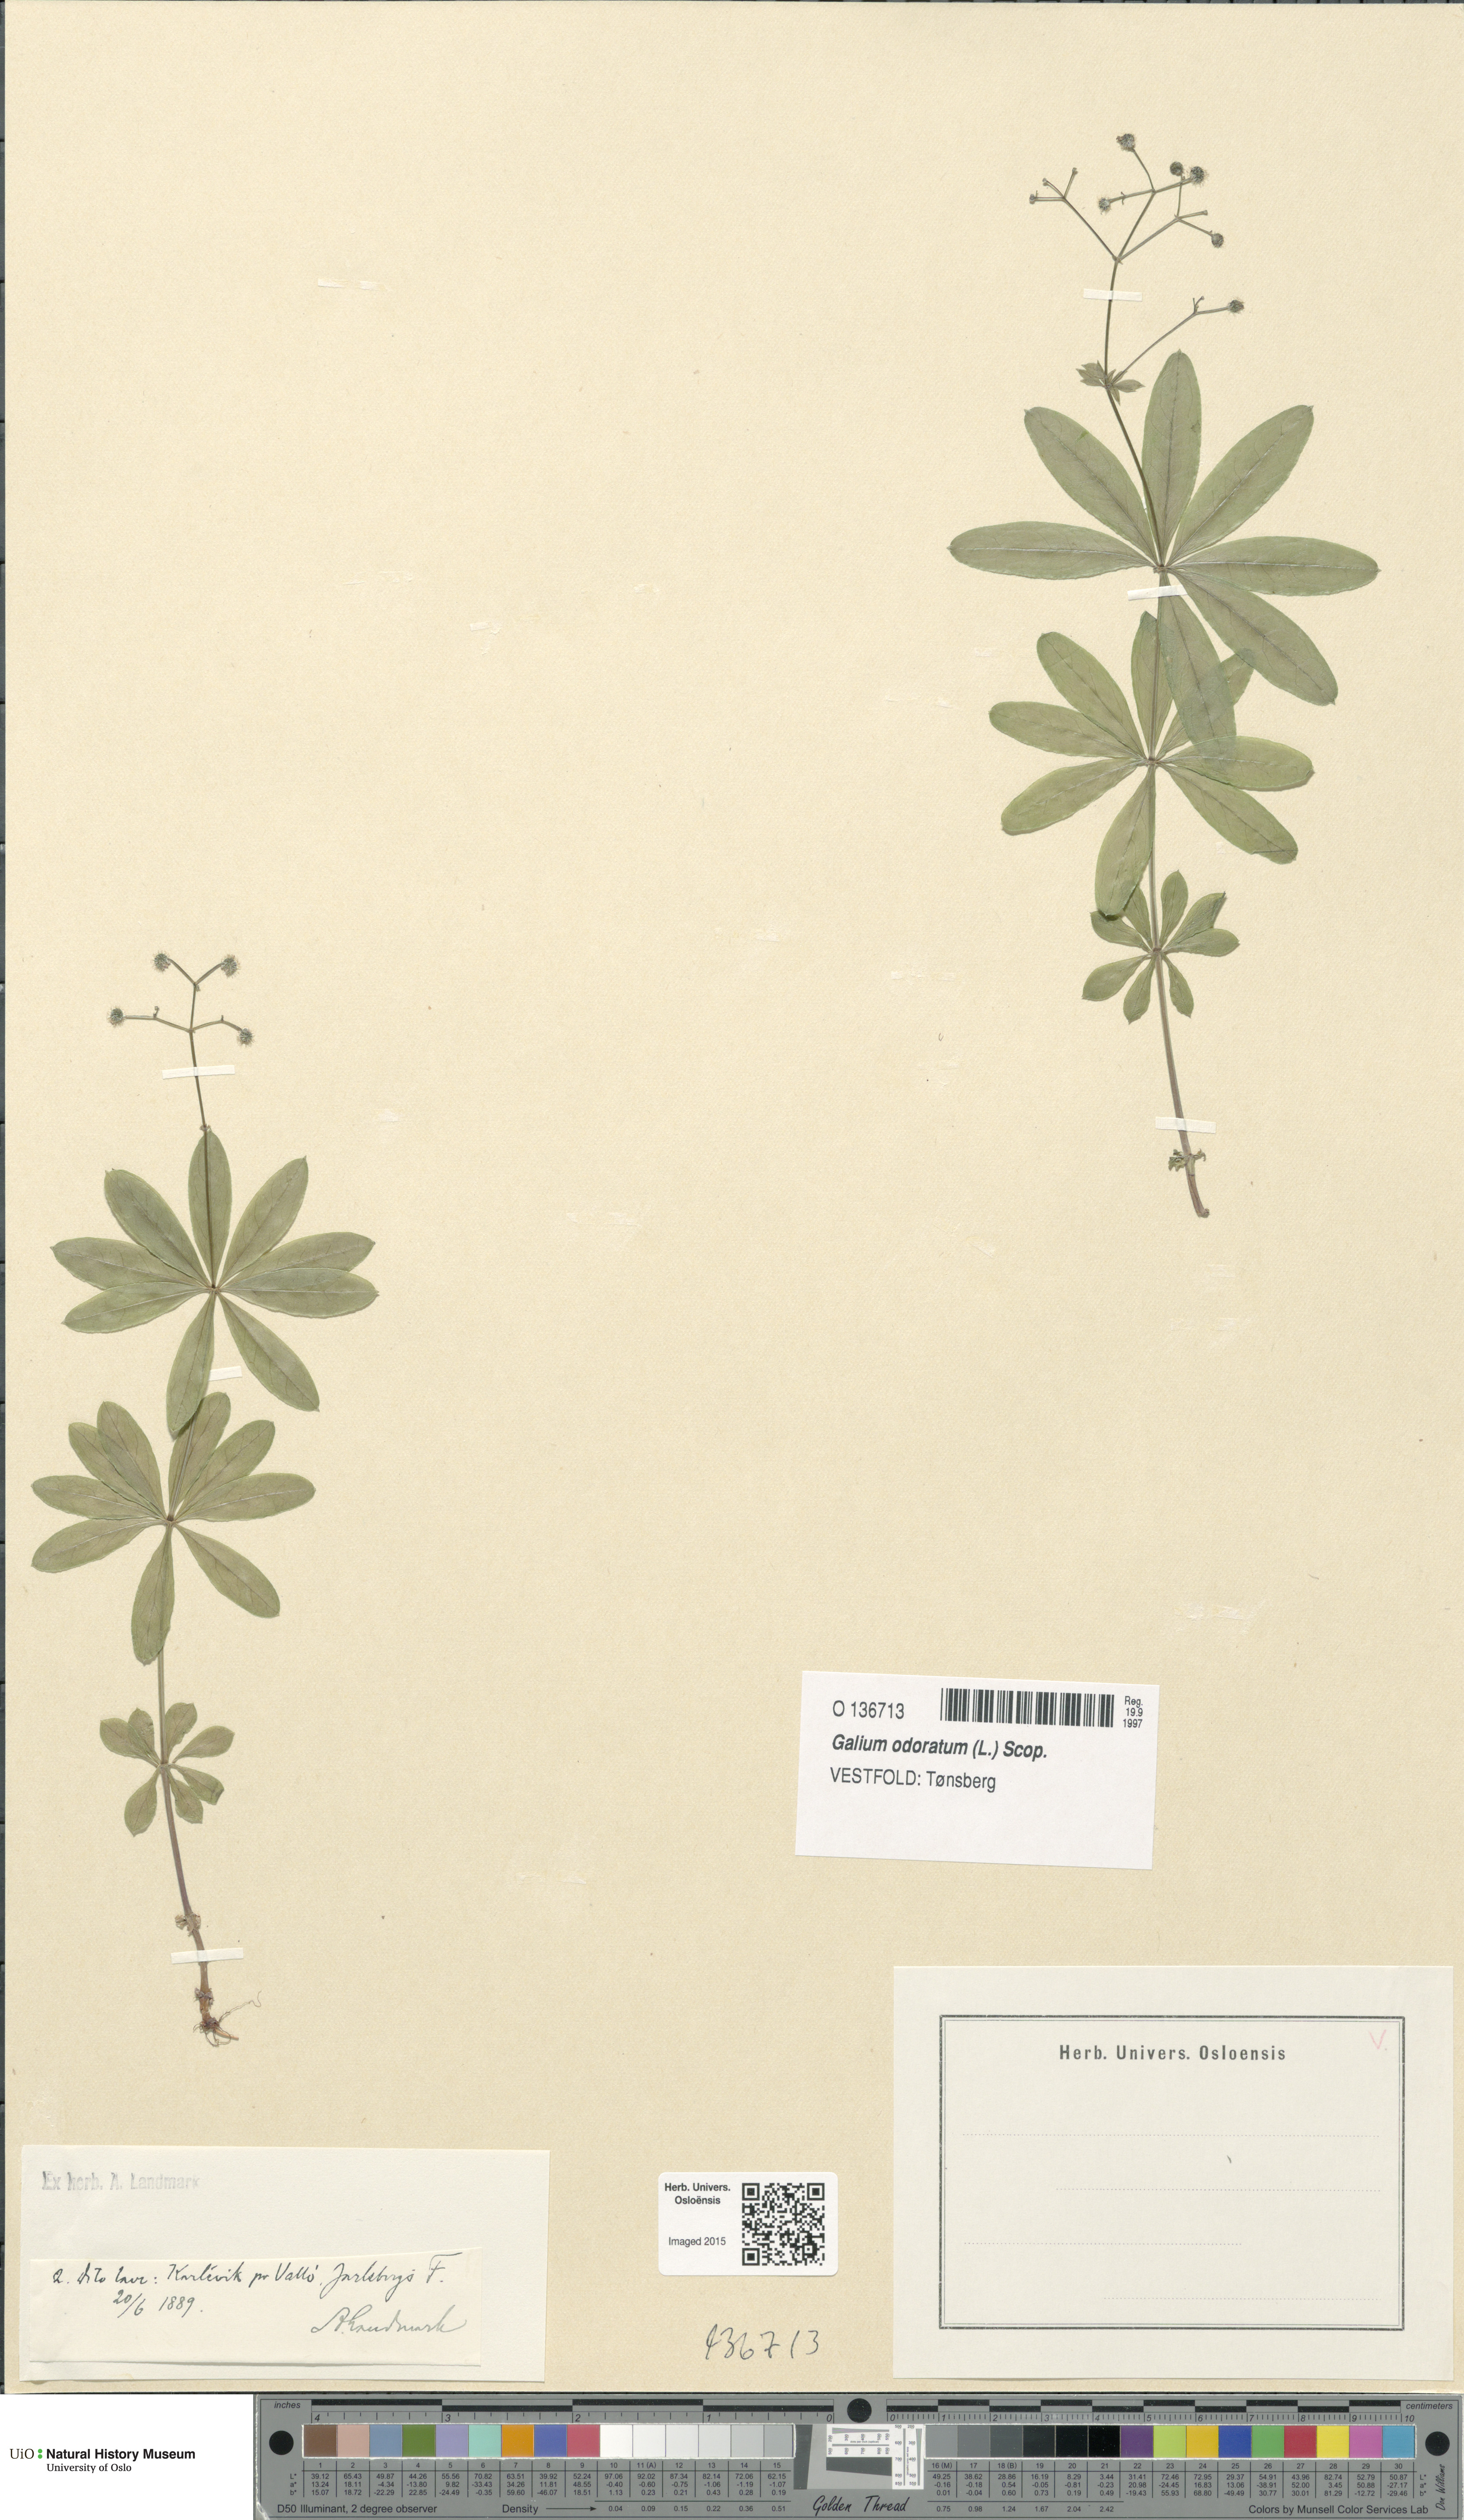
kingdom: Plantae
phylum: Tracheophyta
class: Magnoliopsida
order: Gentianales
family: Rubiaceae
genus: Galium
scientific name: Galium odoratum
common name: Sweet woodruff
